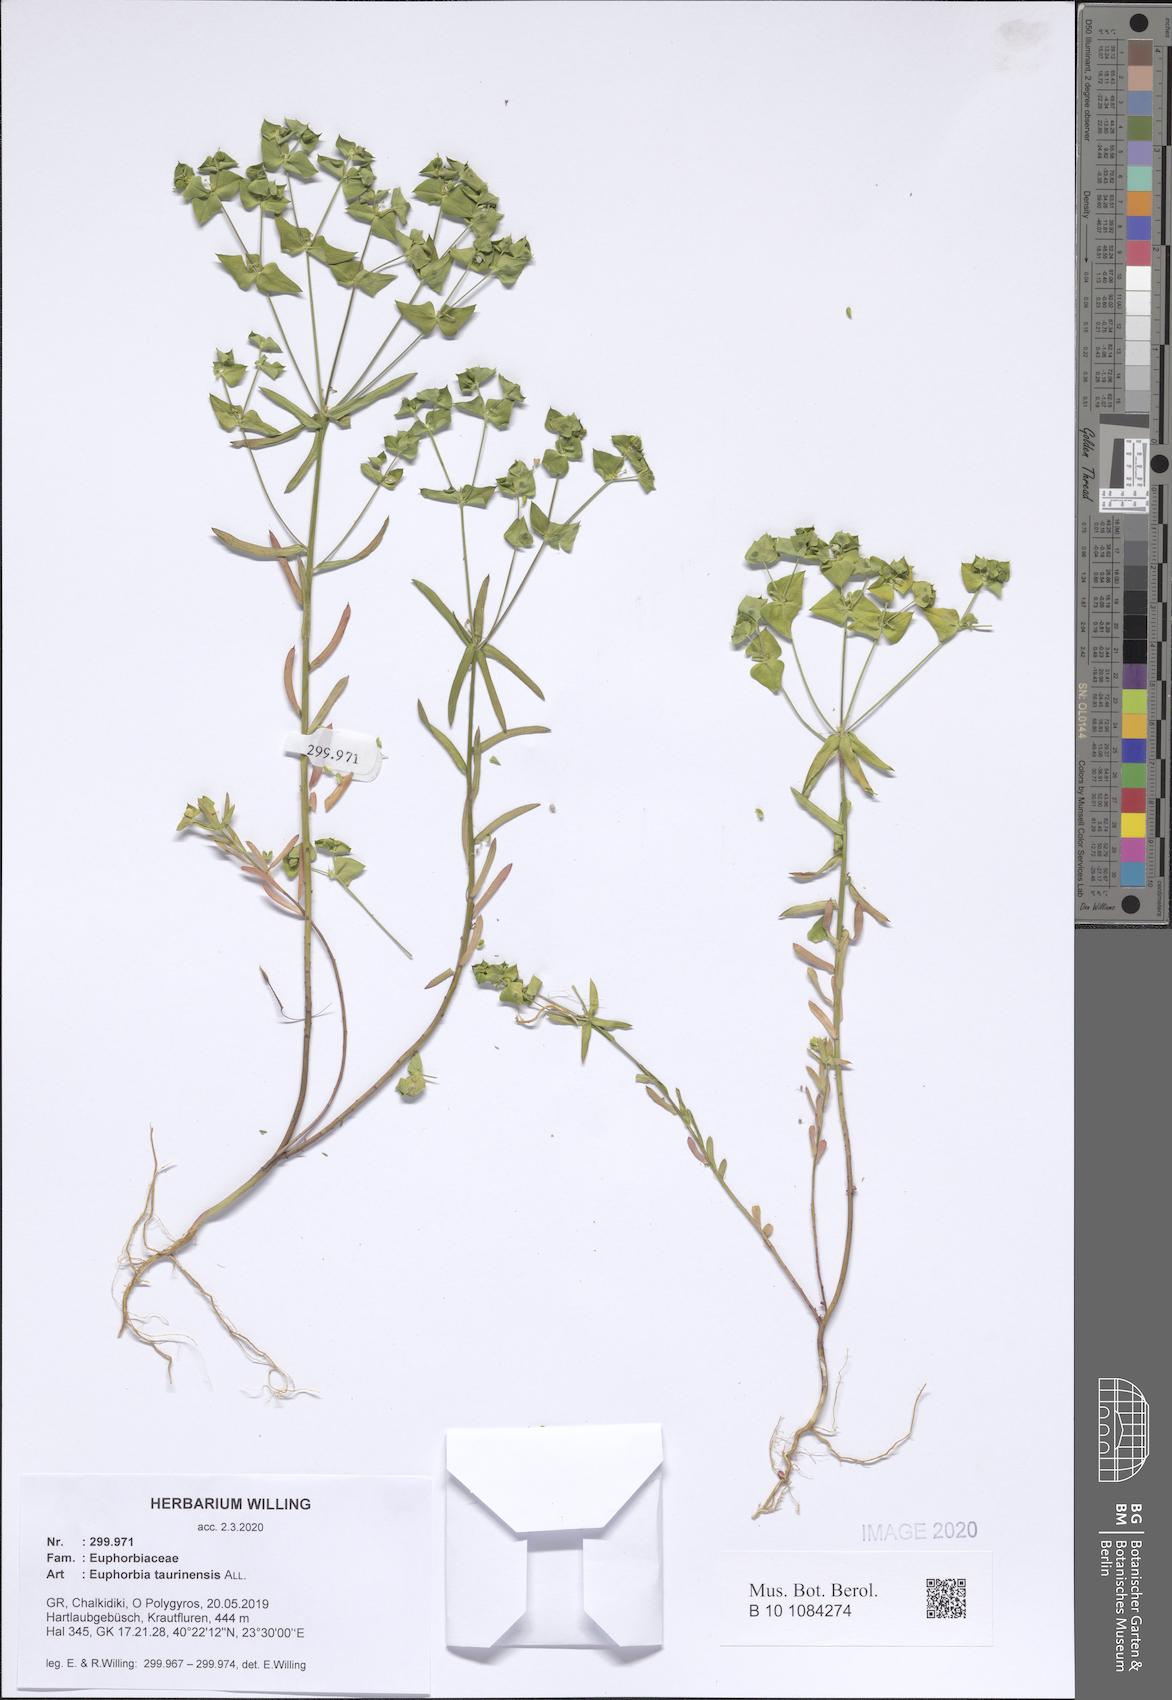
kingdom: Plantae
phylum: Tracheophyta
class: Magnoliopsida
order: Malpighiales
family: Euphorbiaceae
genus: Euphorbia
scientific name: Euphorbia taurinensis
